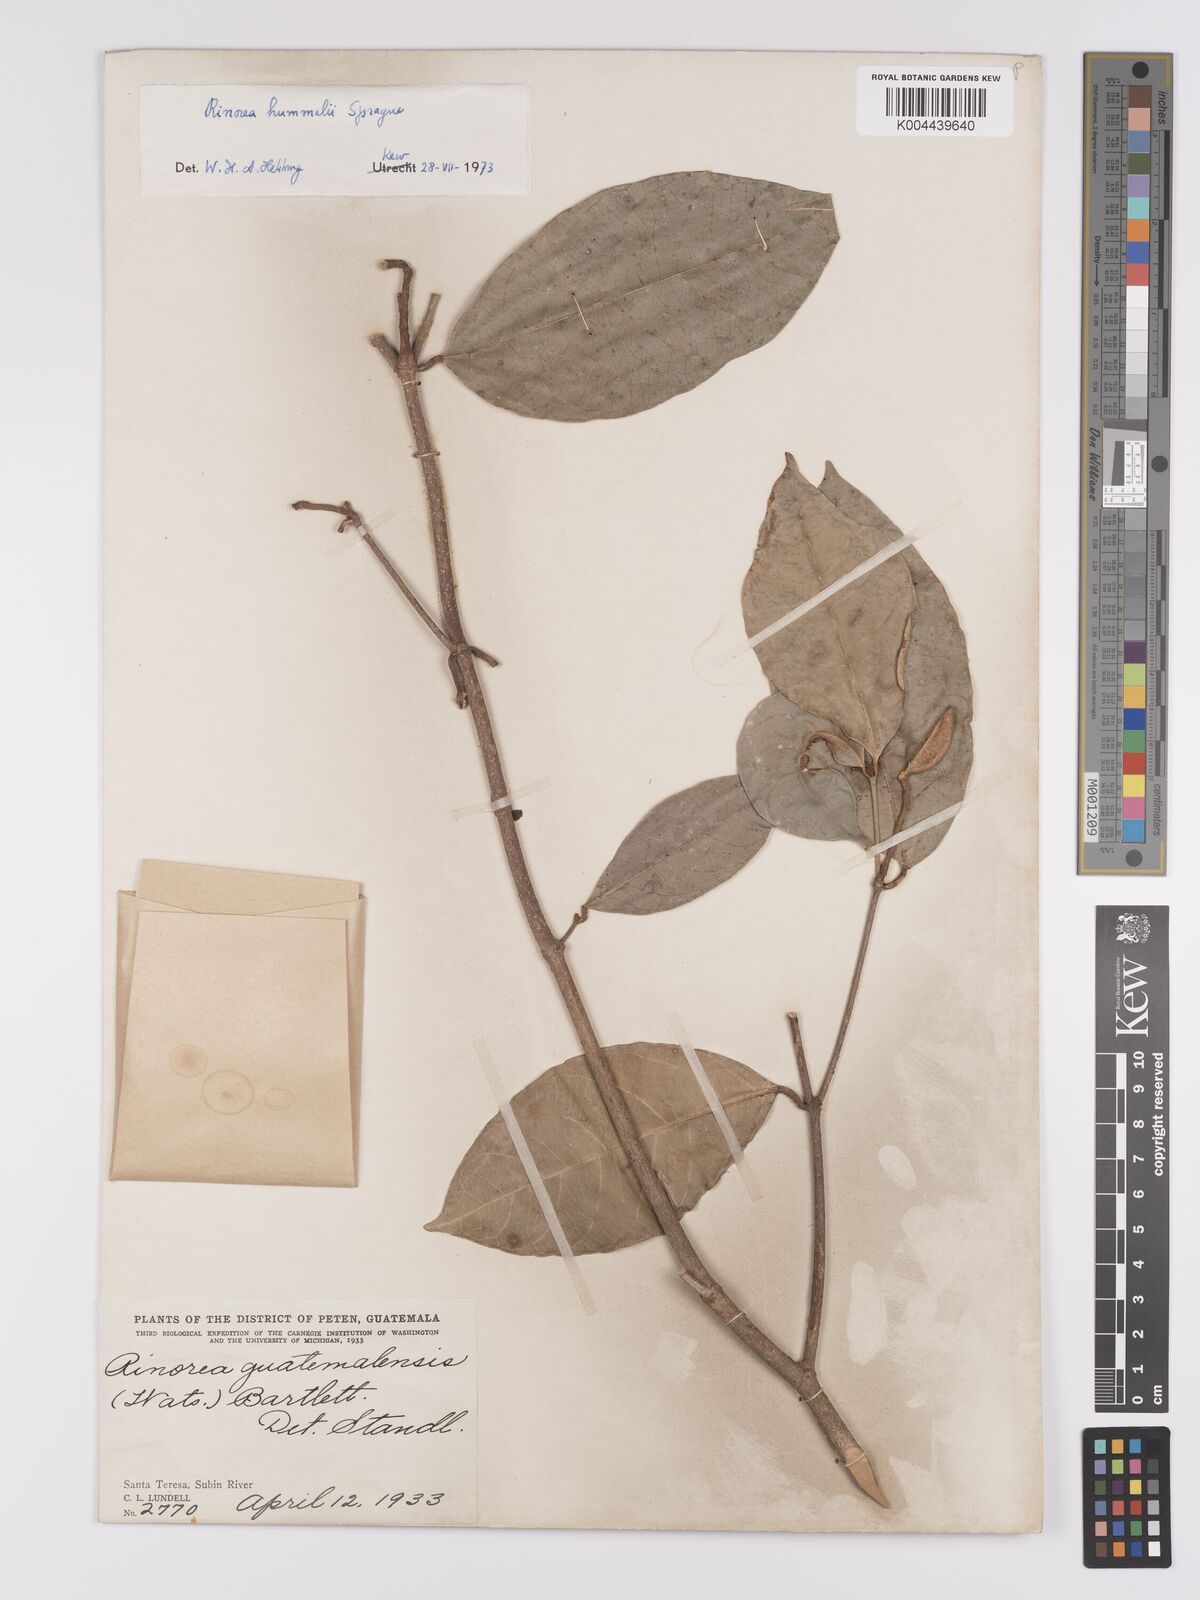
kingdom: Plantae
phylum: Tracheophyta
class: Magnoliopsida
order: Malpighiales
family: Violaceae
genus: Rinorea
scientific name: Rinorea hummelii
